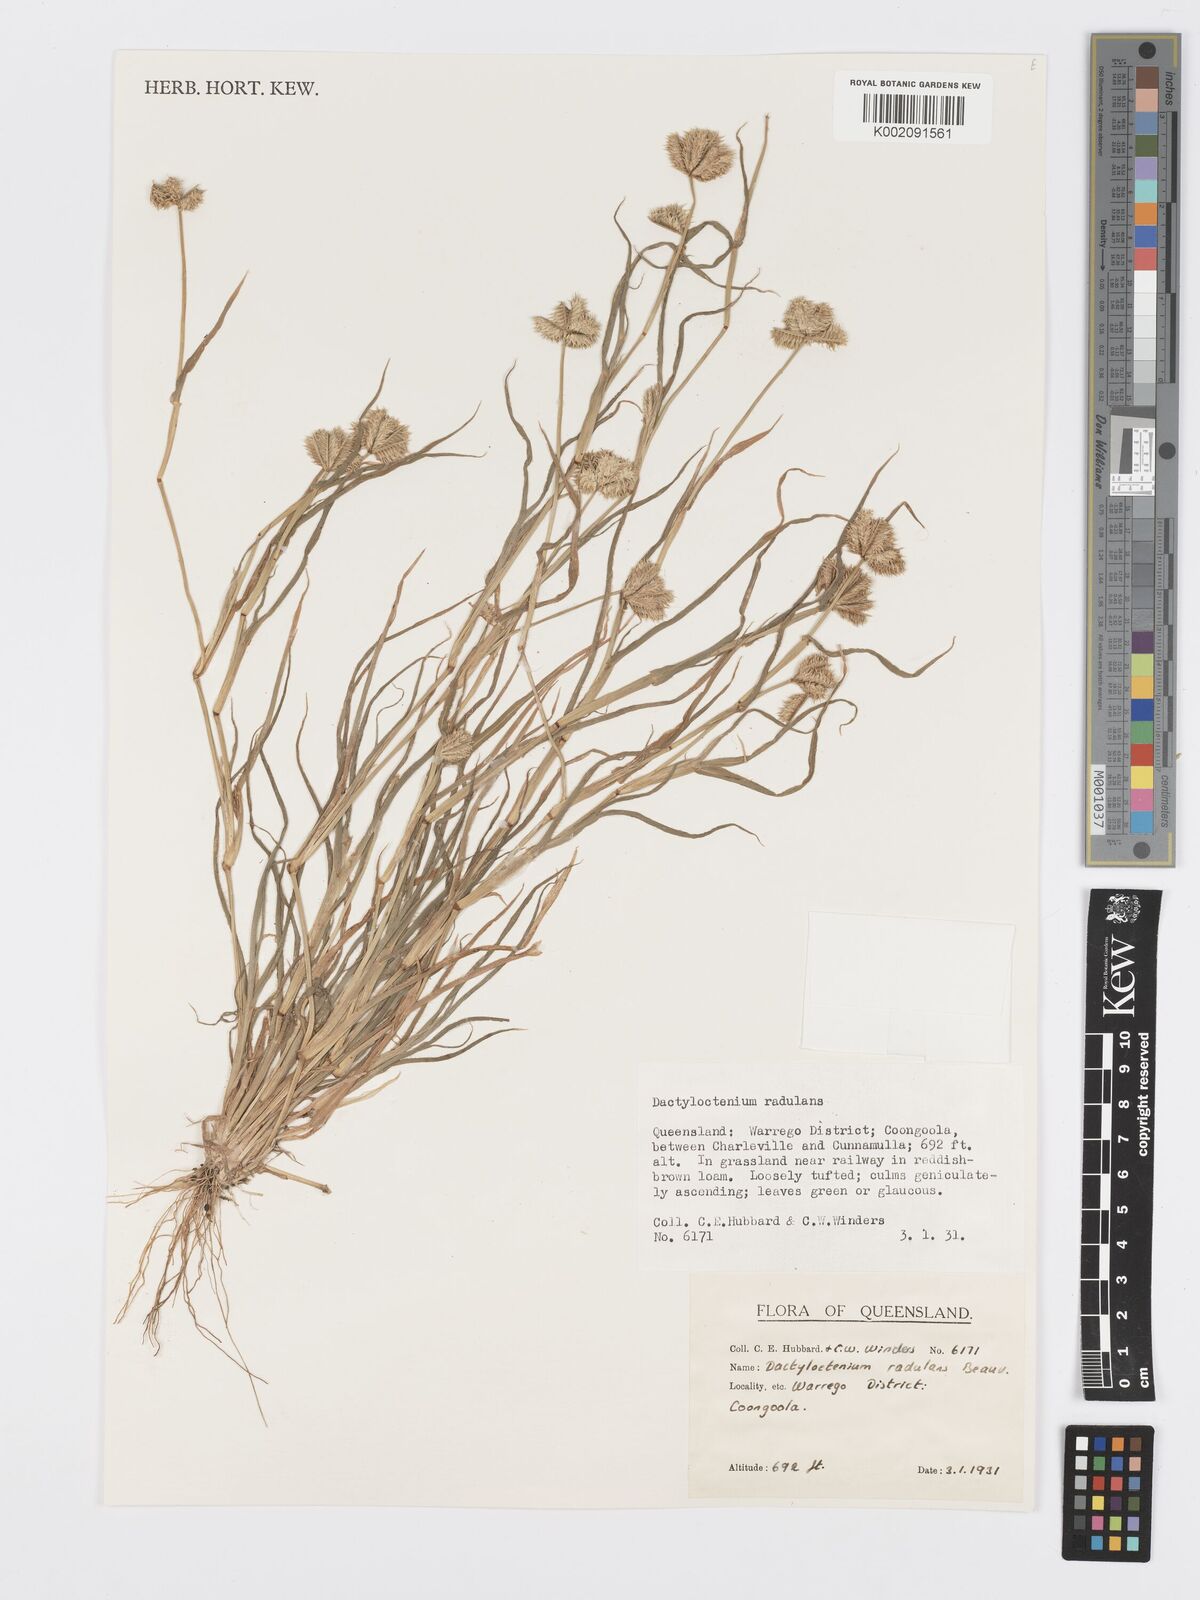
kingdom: Plantae
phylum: Tracheophyta
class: Liliopsida
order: Poales
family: Poaceae
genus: Dactyloctenium
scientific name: Dactyloctenium radulans
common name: Button-grass
